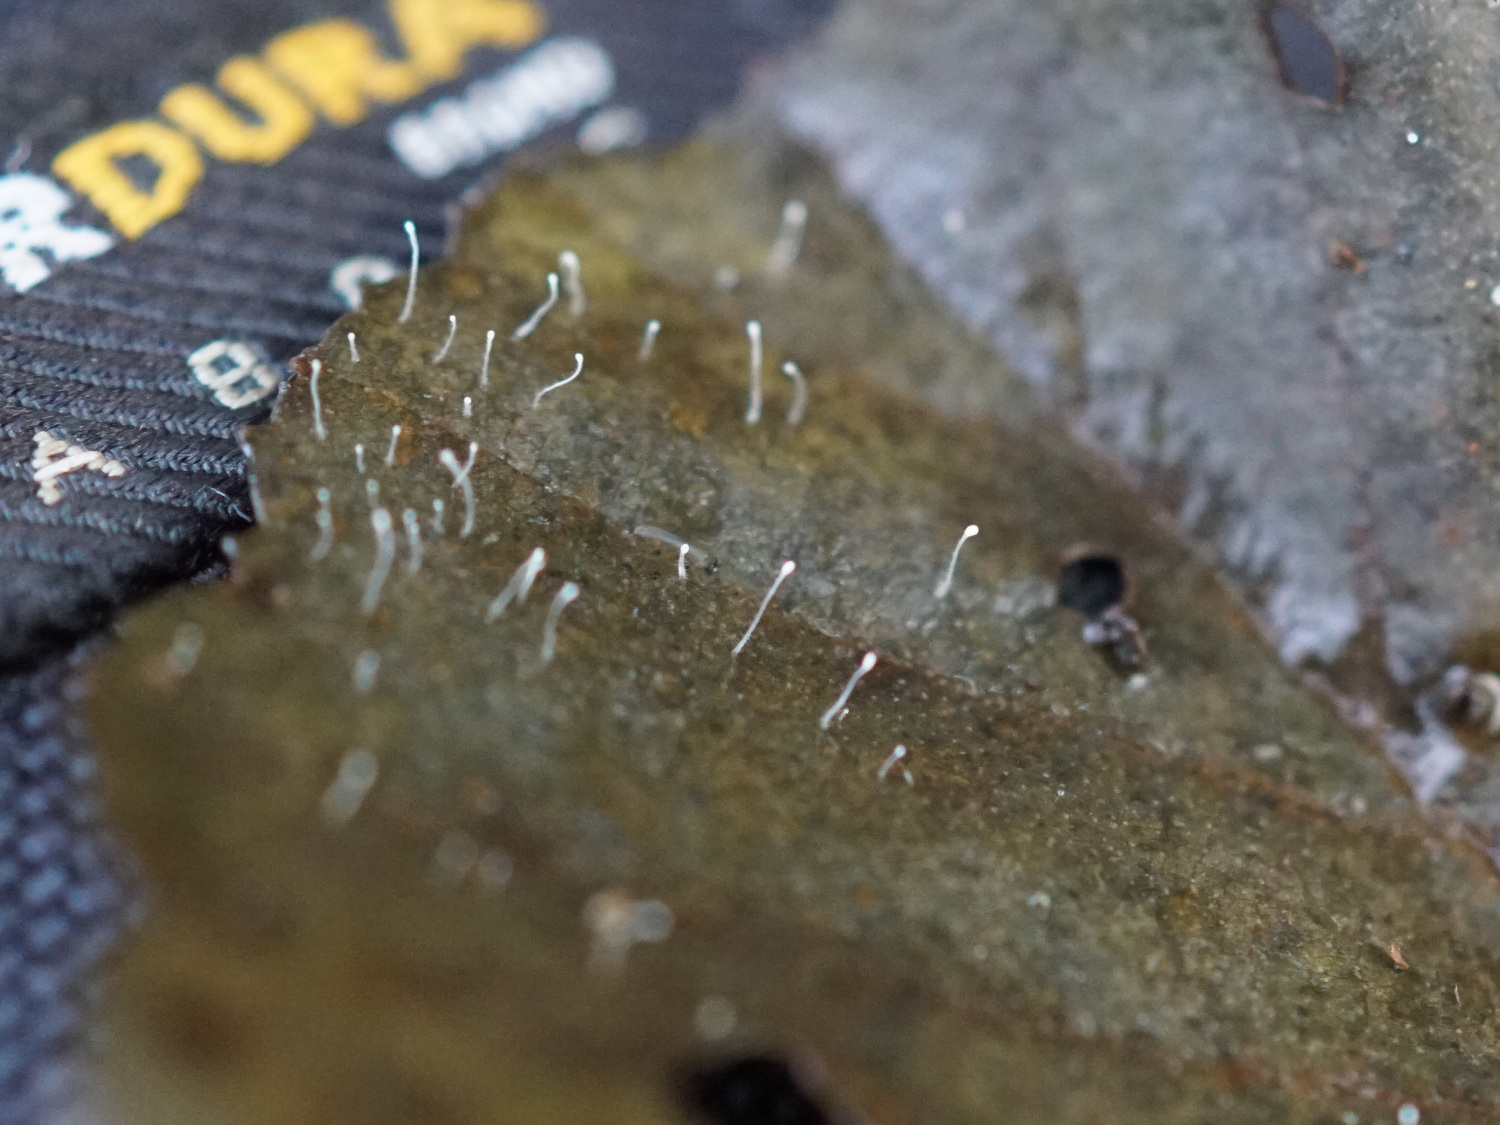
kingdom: Fungi
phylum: Basidiomycota
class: Agaricomycetes
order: Agaricales
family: Typhulaceae
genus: Typhula
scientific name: Typhula setipes
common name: liden trådkølle
